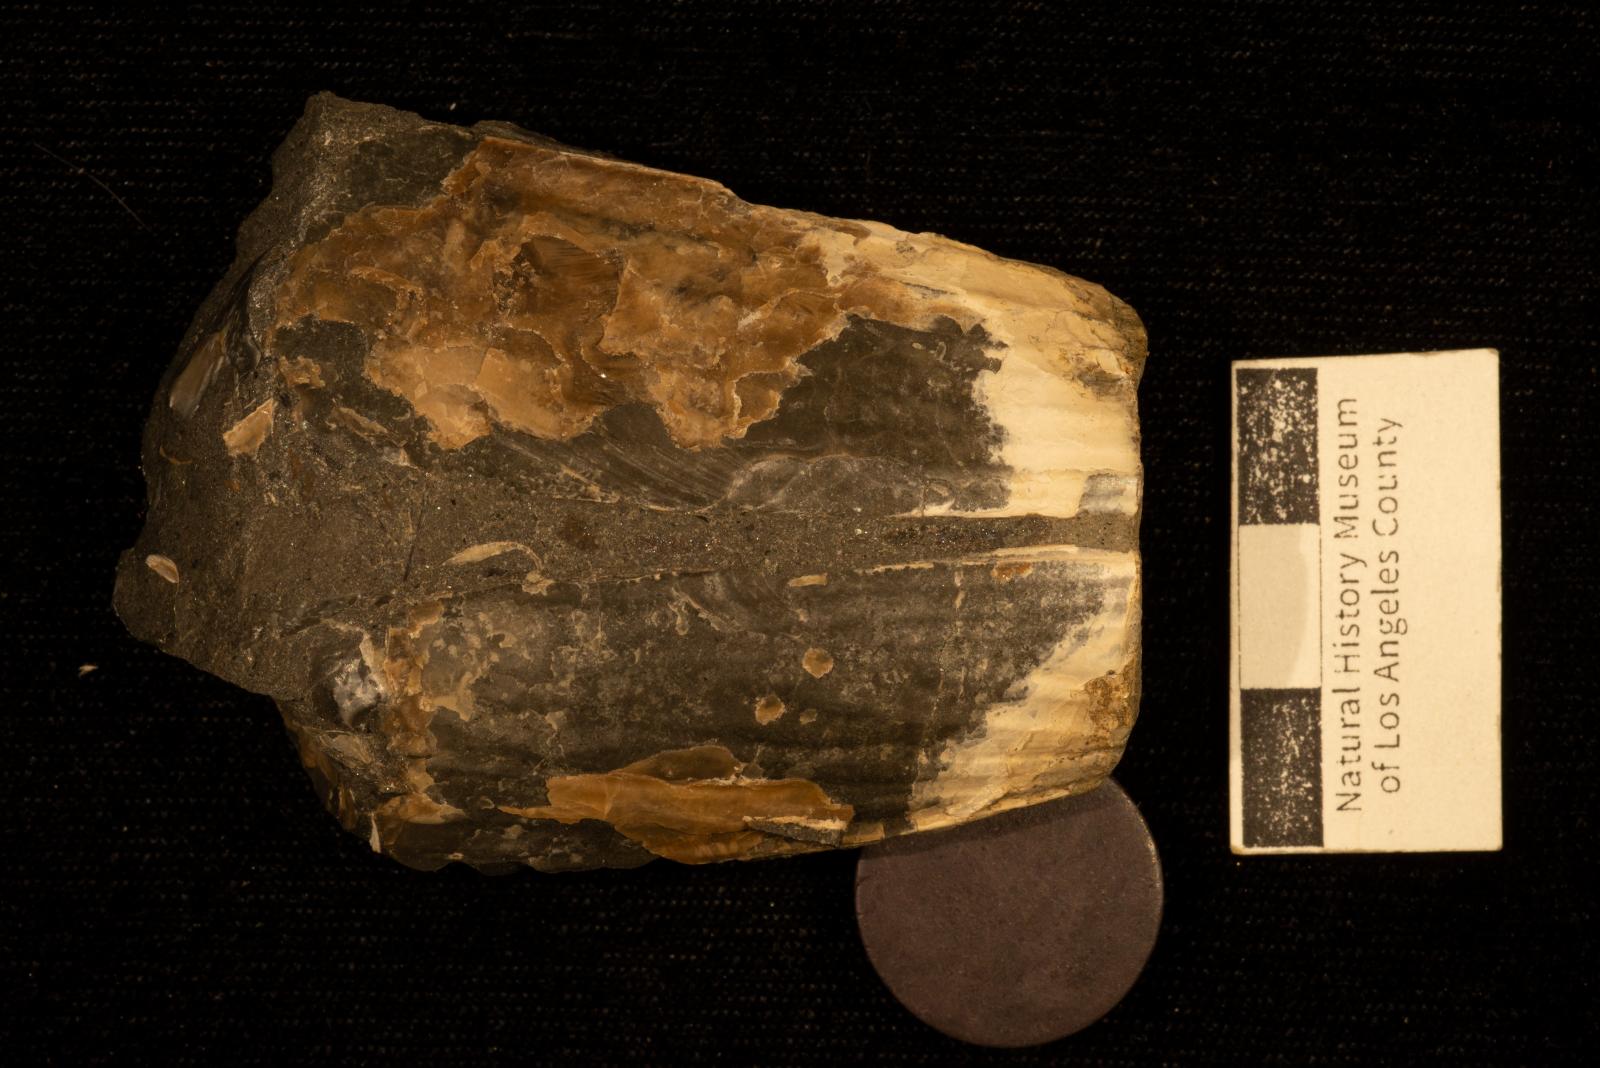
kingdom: Animalia
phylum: Mollusca
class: Bivalvia
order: Ostreida
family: Pinnidae
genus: Pinna
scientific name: Pinna
